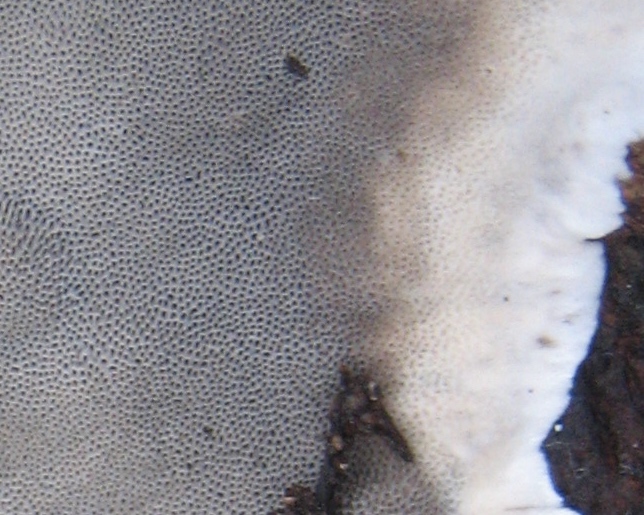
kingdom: Fungi
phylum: Basidiomycota
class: Agaricomycetes
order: Polyporales
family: Phanerochaetaceae
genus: Bjerkandera
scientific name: Bjerkandera adusta
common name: sveden sodporesvamp
